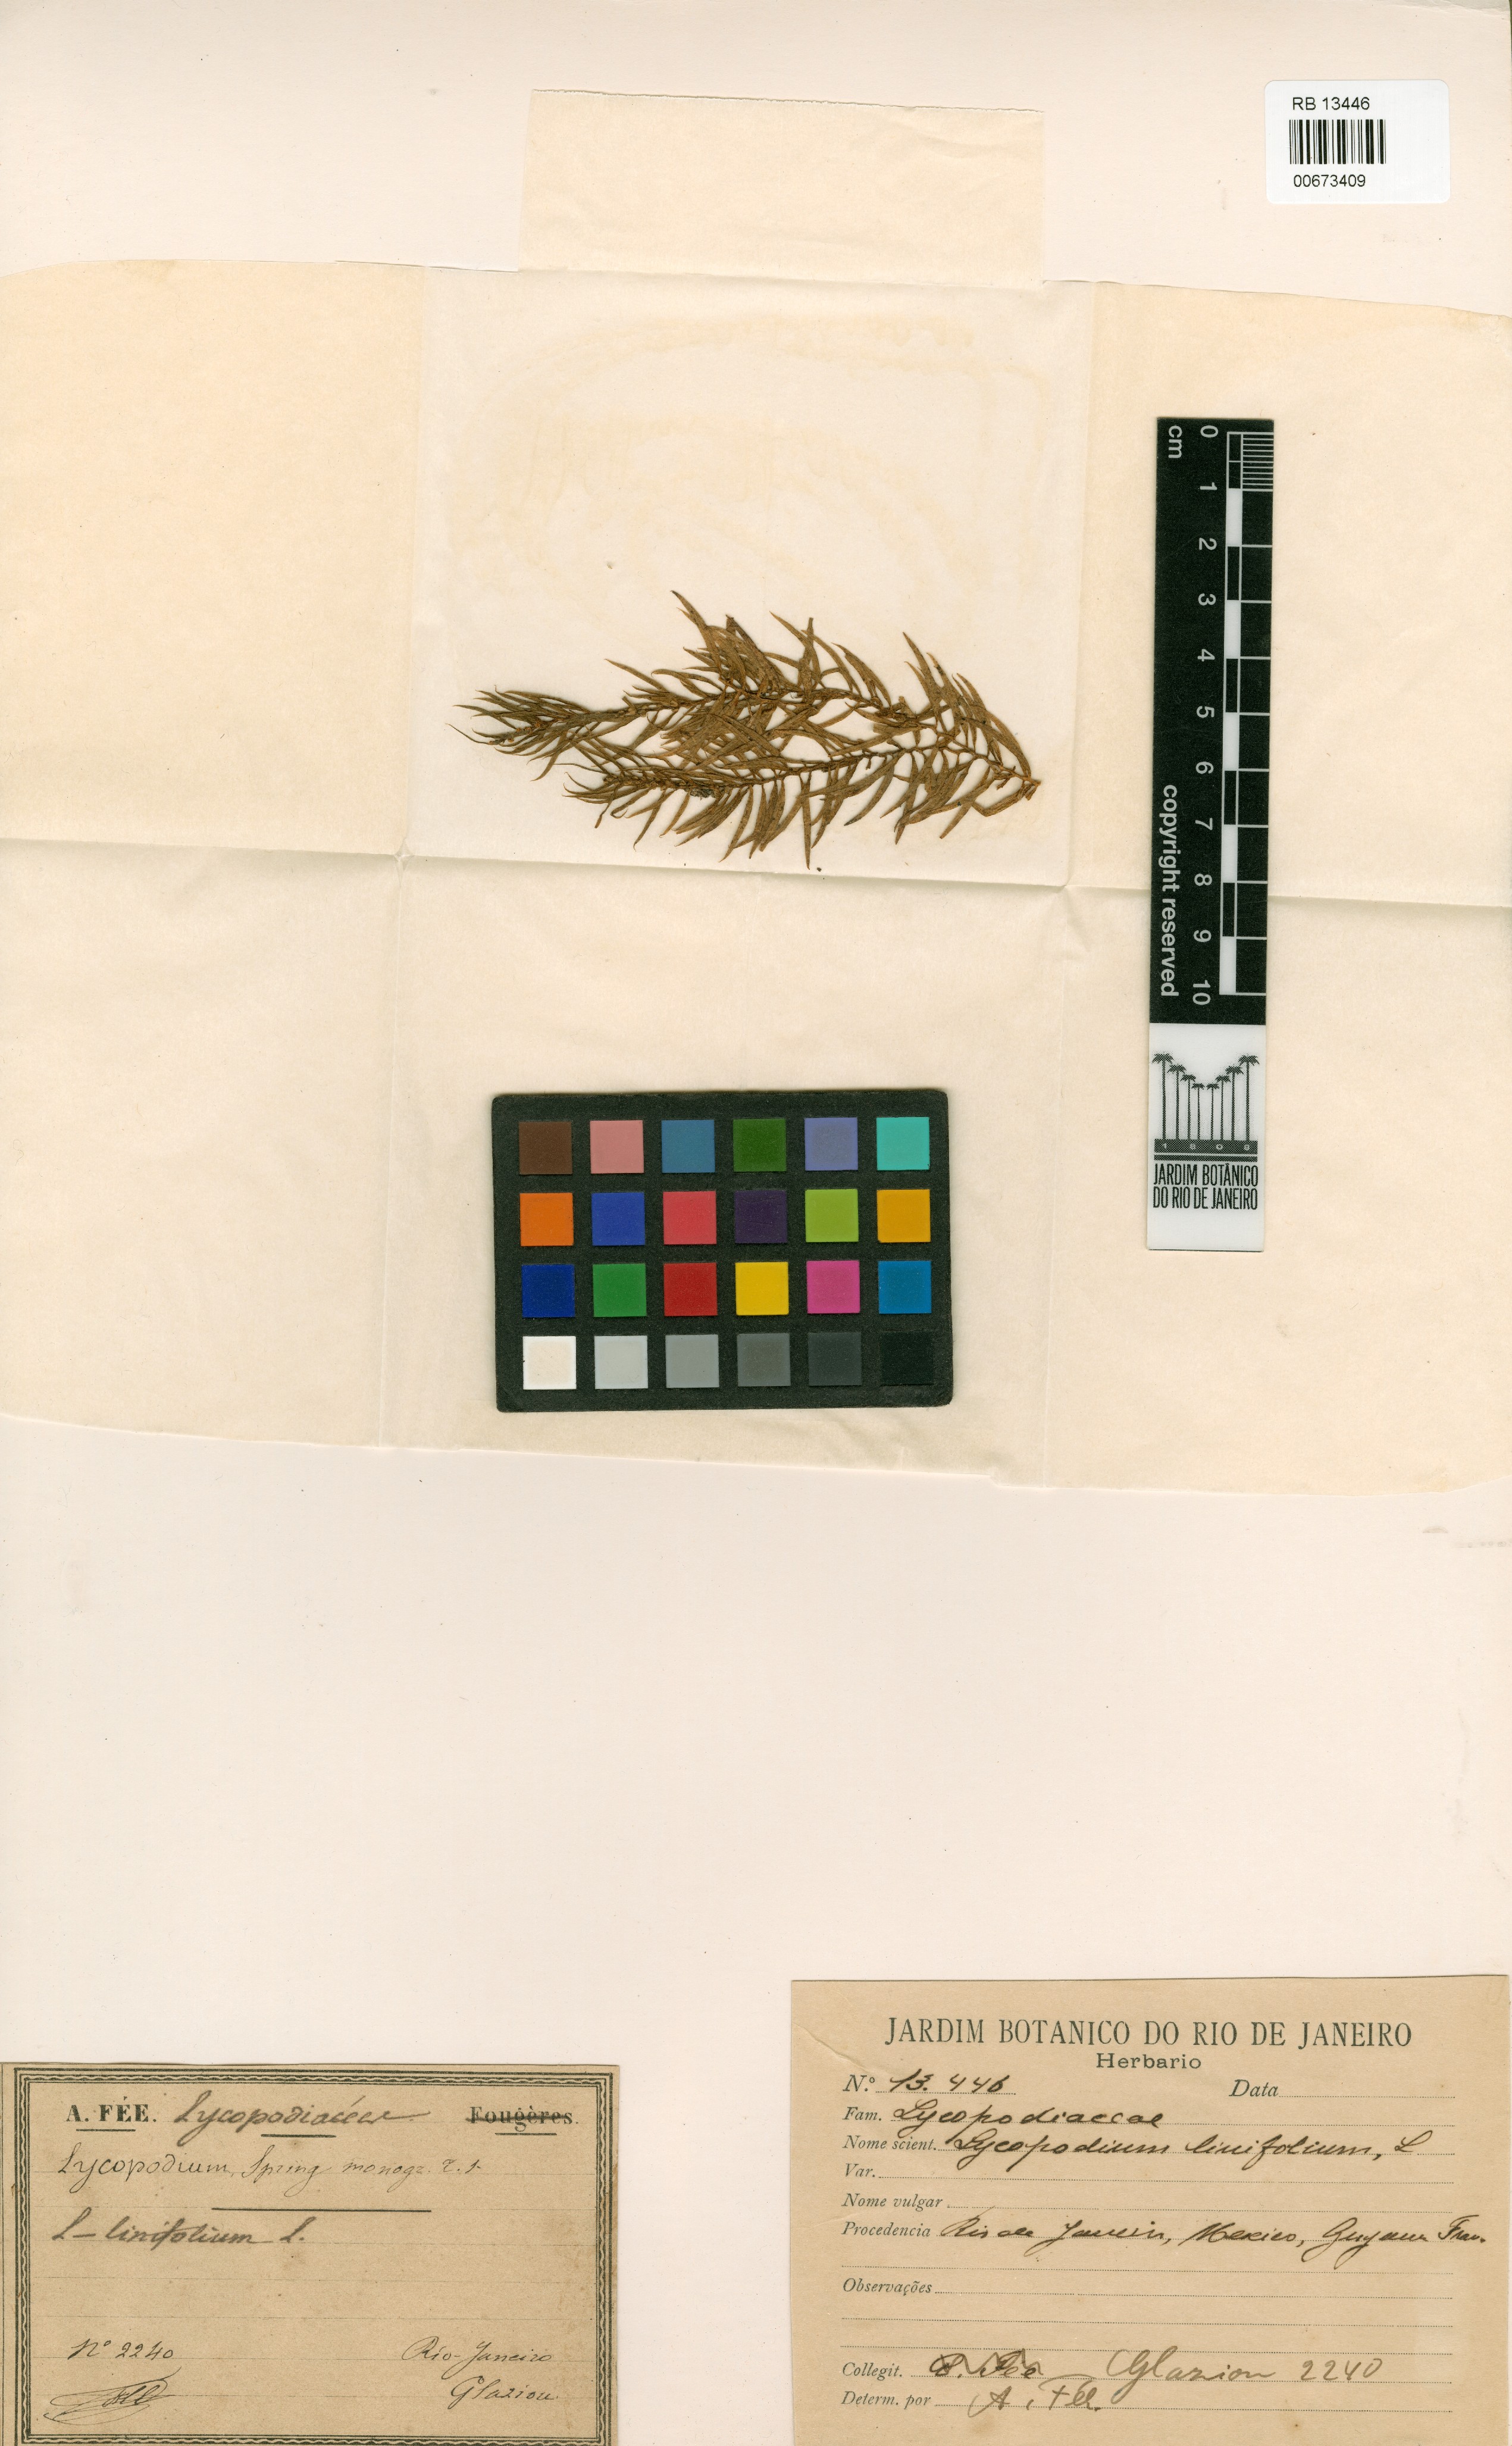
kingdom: Plantae
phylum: Tracheophyta
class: Lycopodiopsida
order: Lycopodiales
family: Lycopodiaceae
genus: Phlegmariurus
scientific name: Phlegmariurus flexibilis
